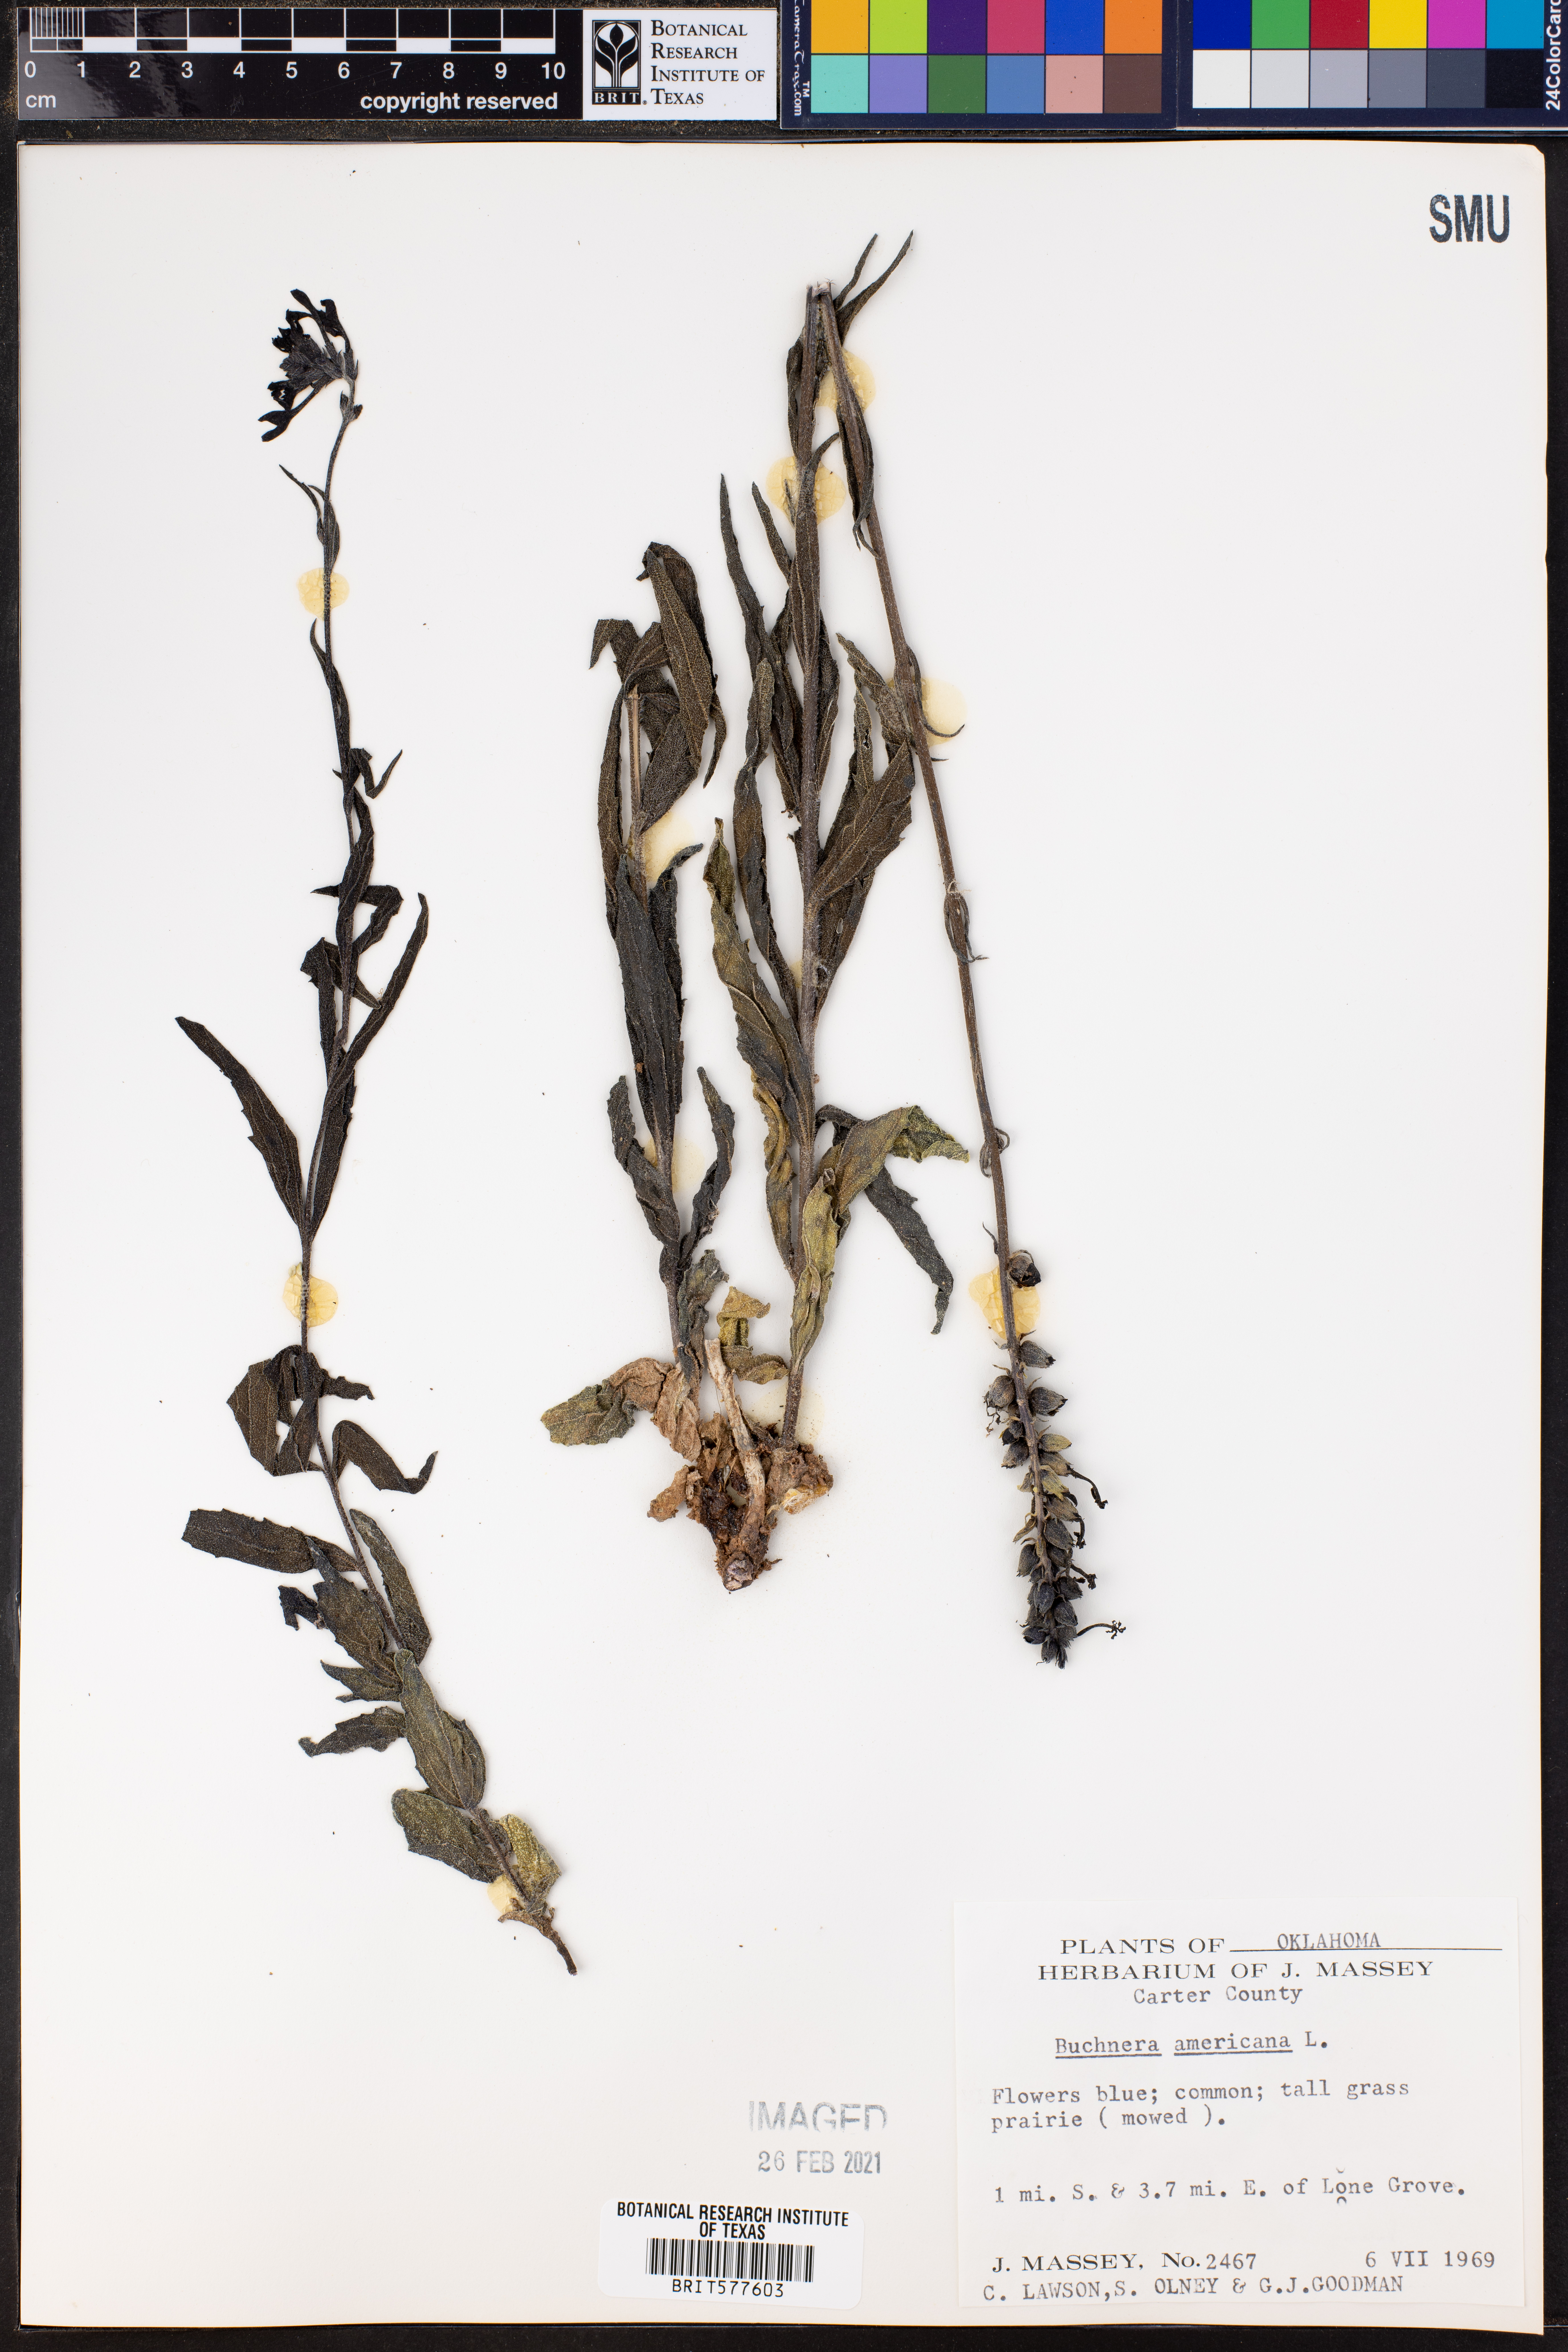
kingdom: Plantae
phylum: Tracheophyta
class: Magnoliopsida
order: Lamiales
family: Orobanchaceae
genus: Buchnera
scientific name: Buchnera americana
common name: American bluehearts
